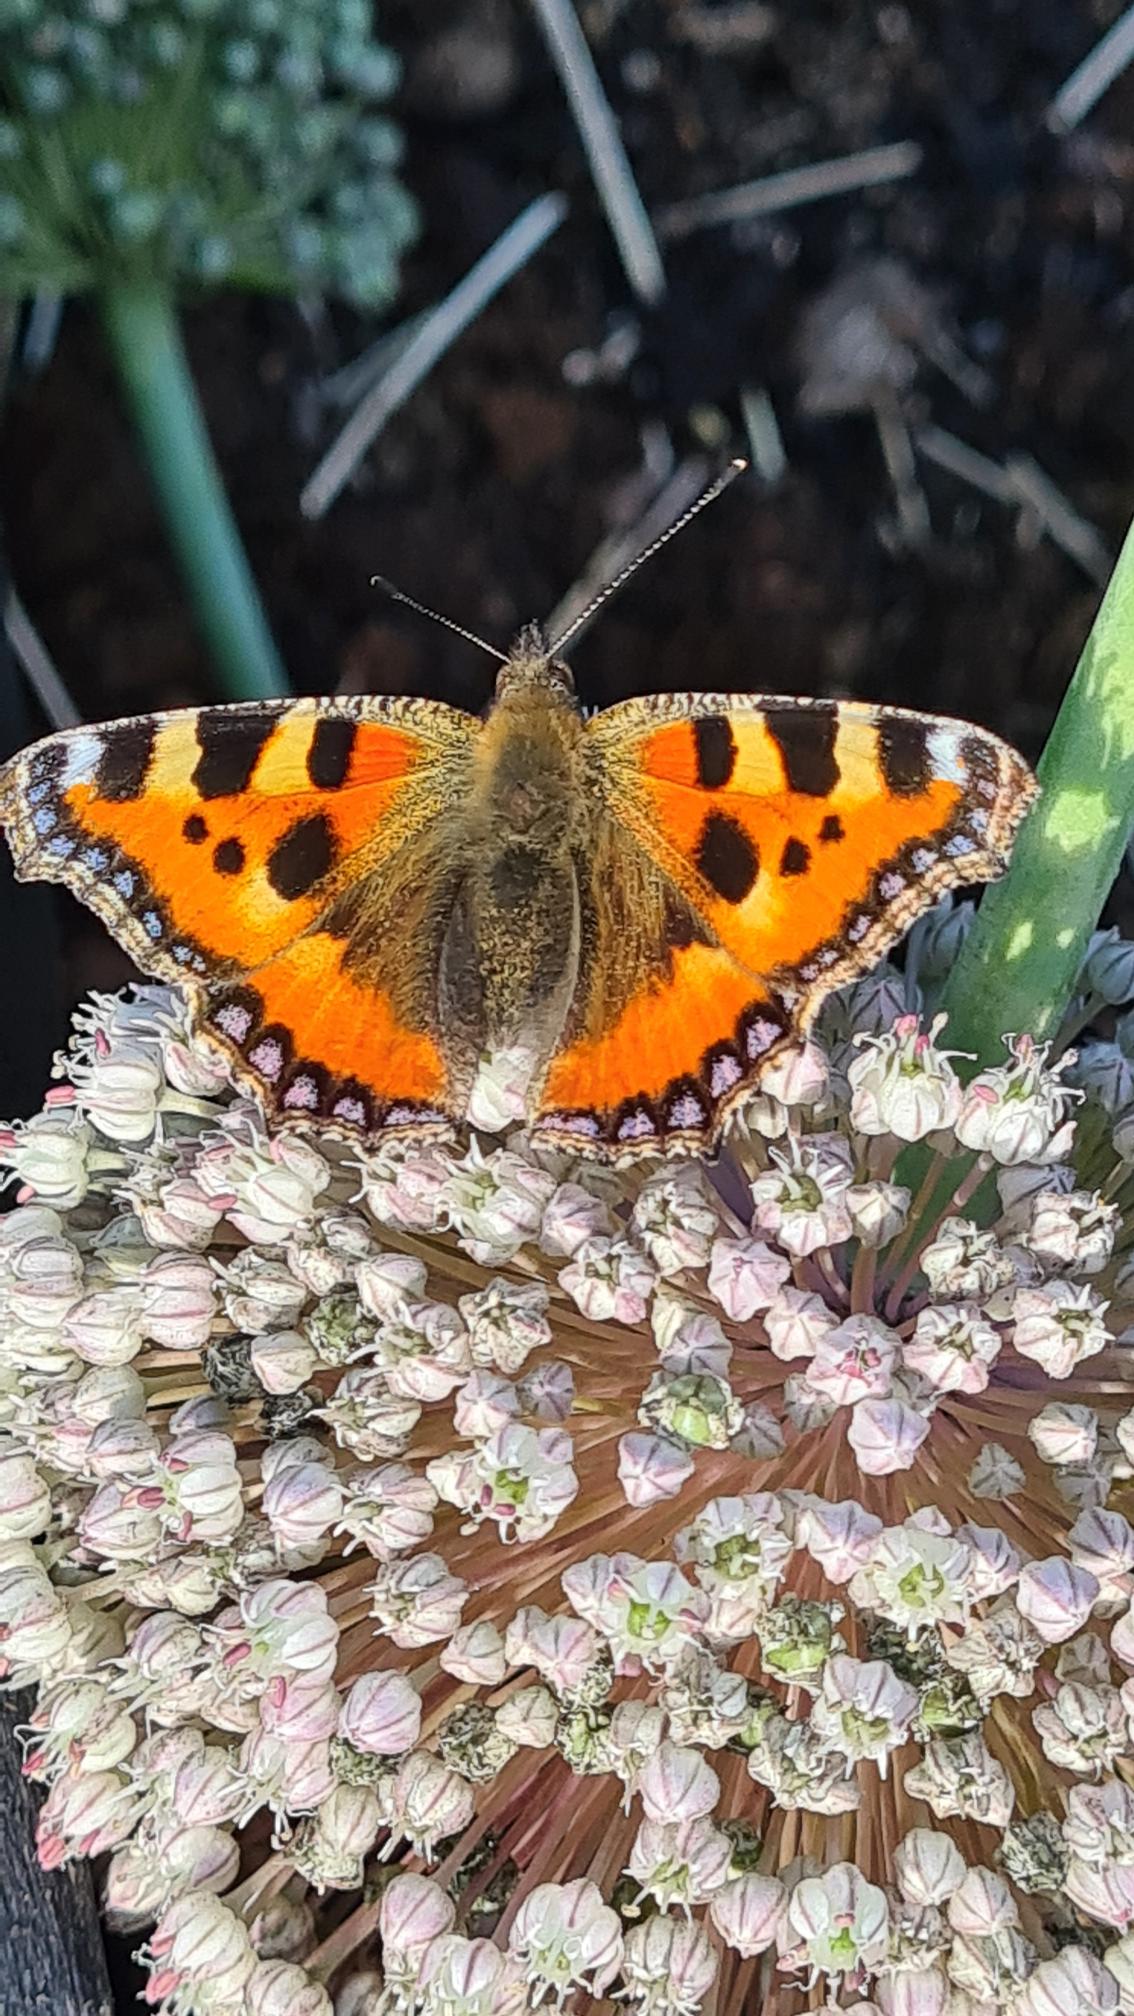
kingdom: Animalia
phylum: Arthropoda
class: Insecta
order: Lepidoptera
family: Nymphalidae
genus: Aglais
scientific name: Aglais urticae
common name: Nældens takvinge
